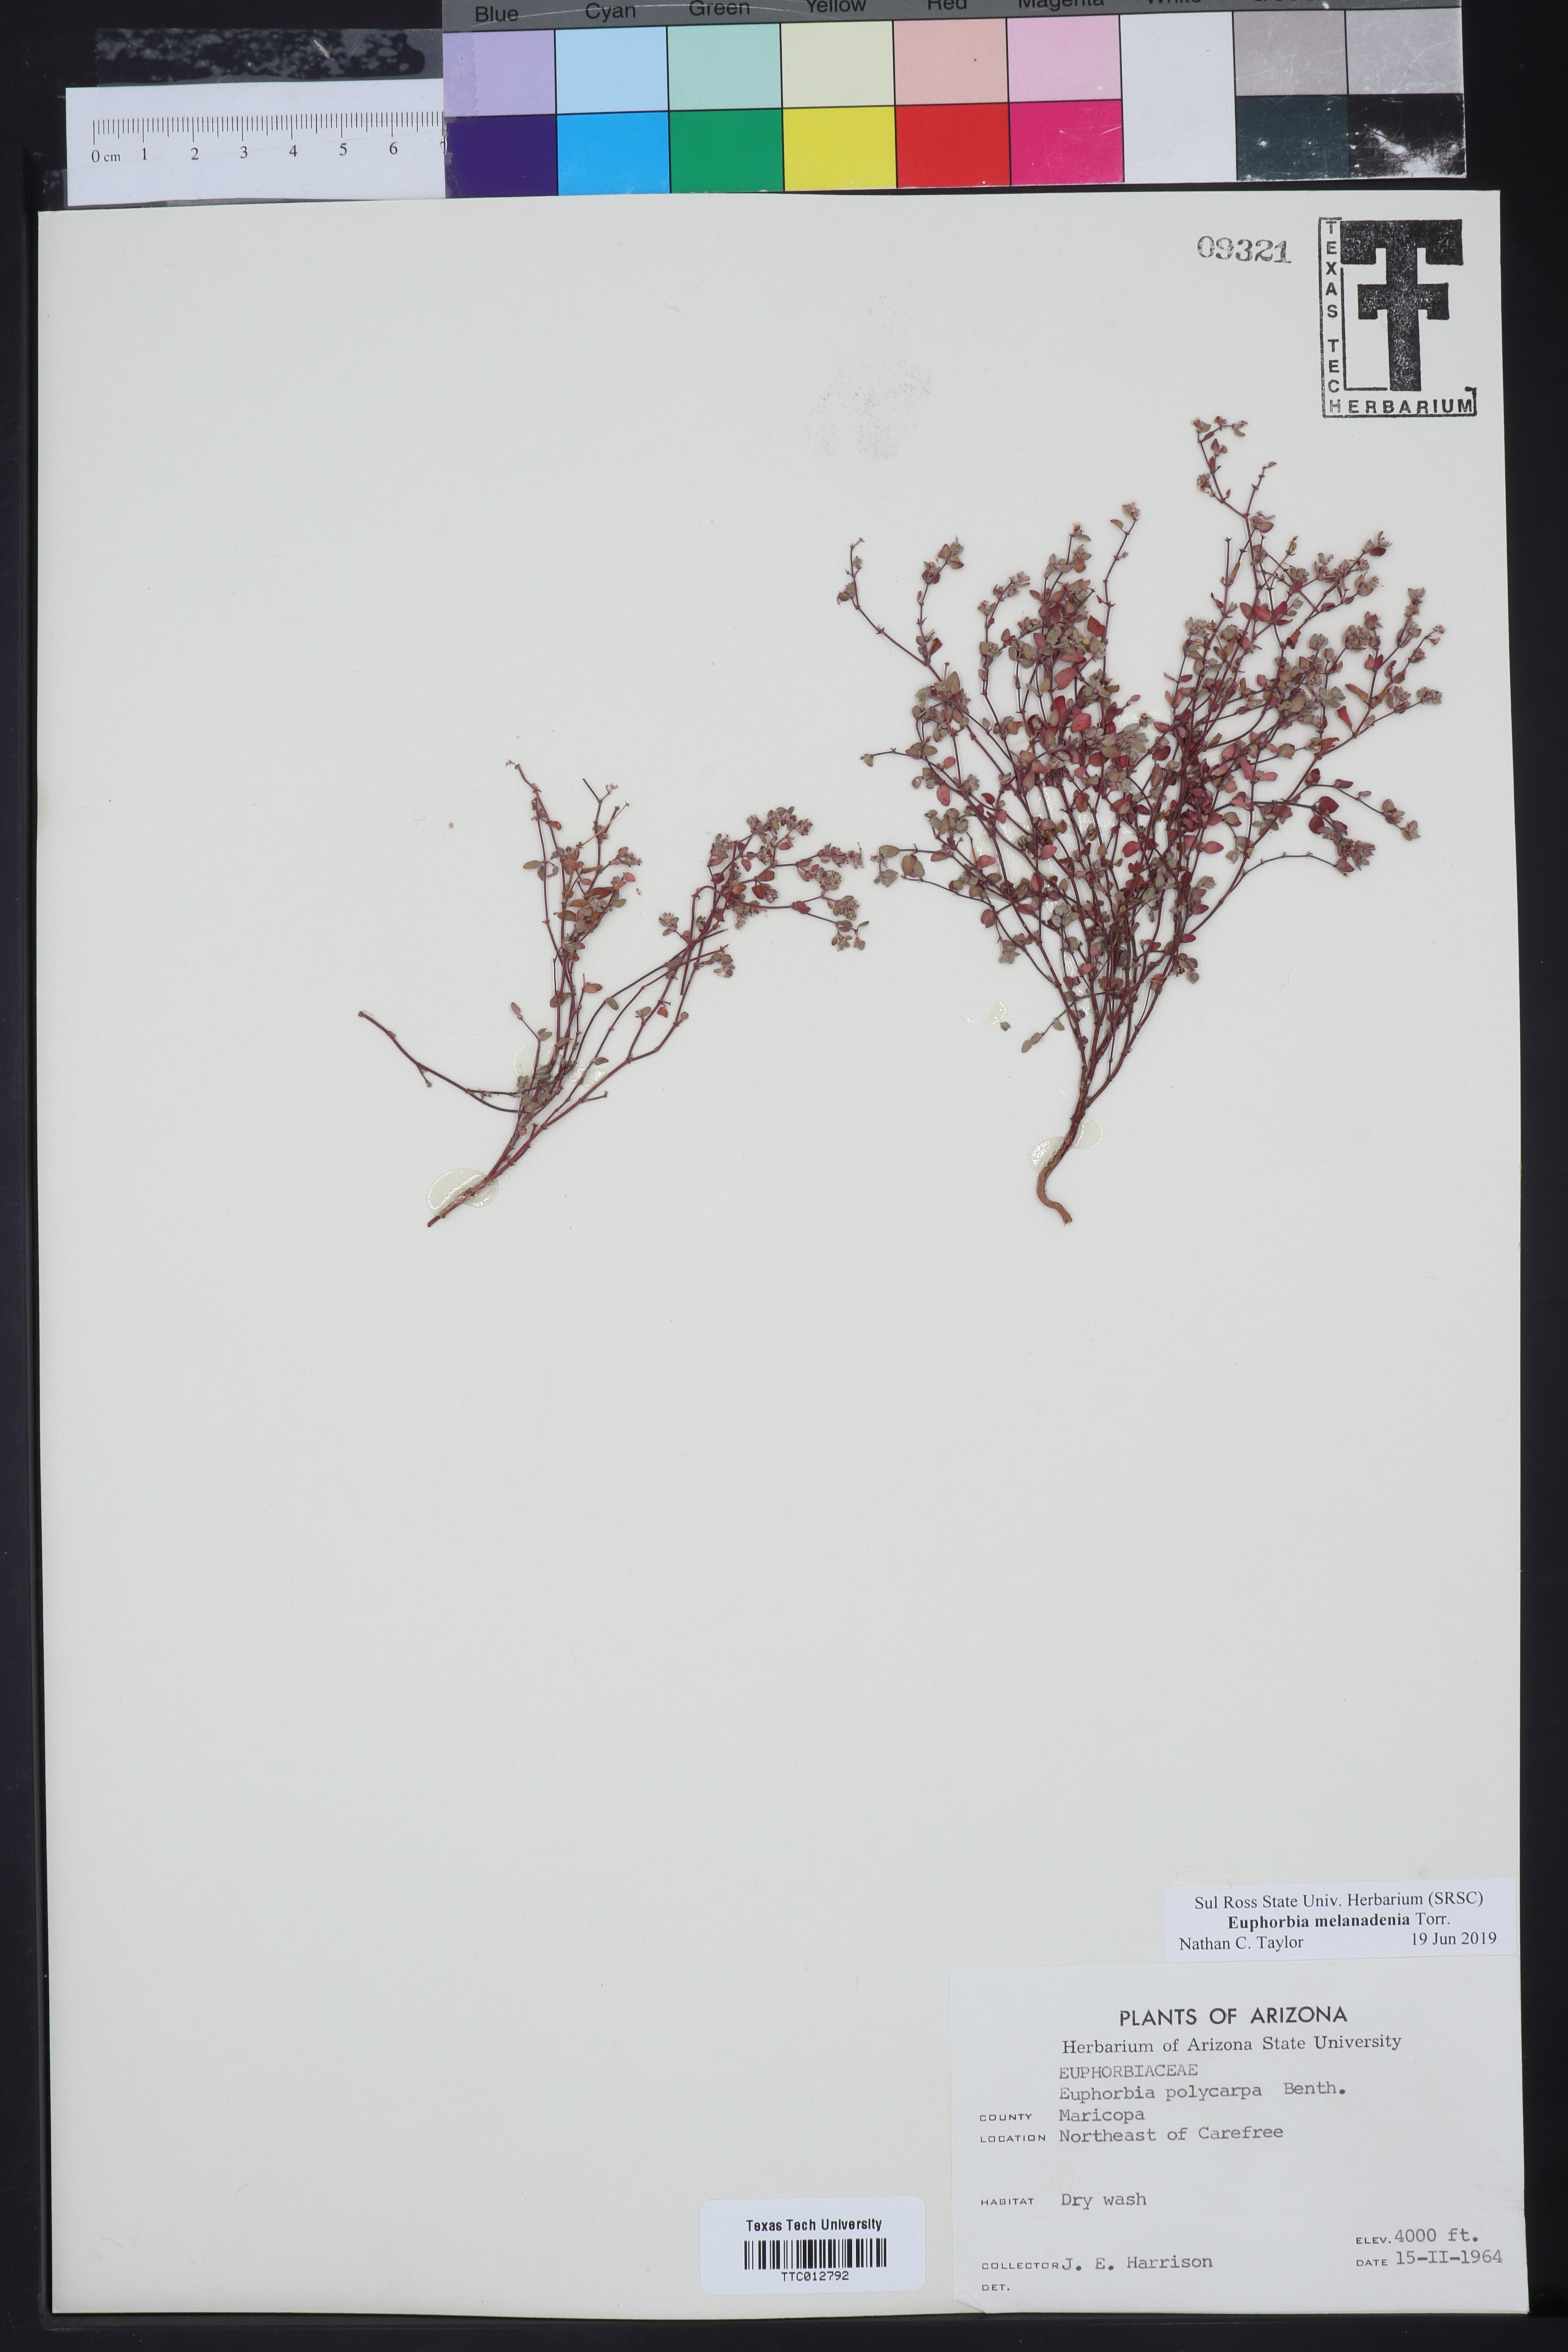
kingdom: Plantae
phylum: Tracheophyta
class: Magnoliopsida
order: Malpighiales
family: Euphorbiaceae
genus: Euphorbia
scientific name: Euphorbia melanadenia
